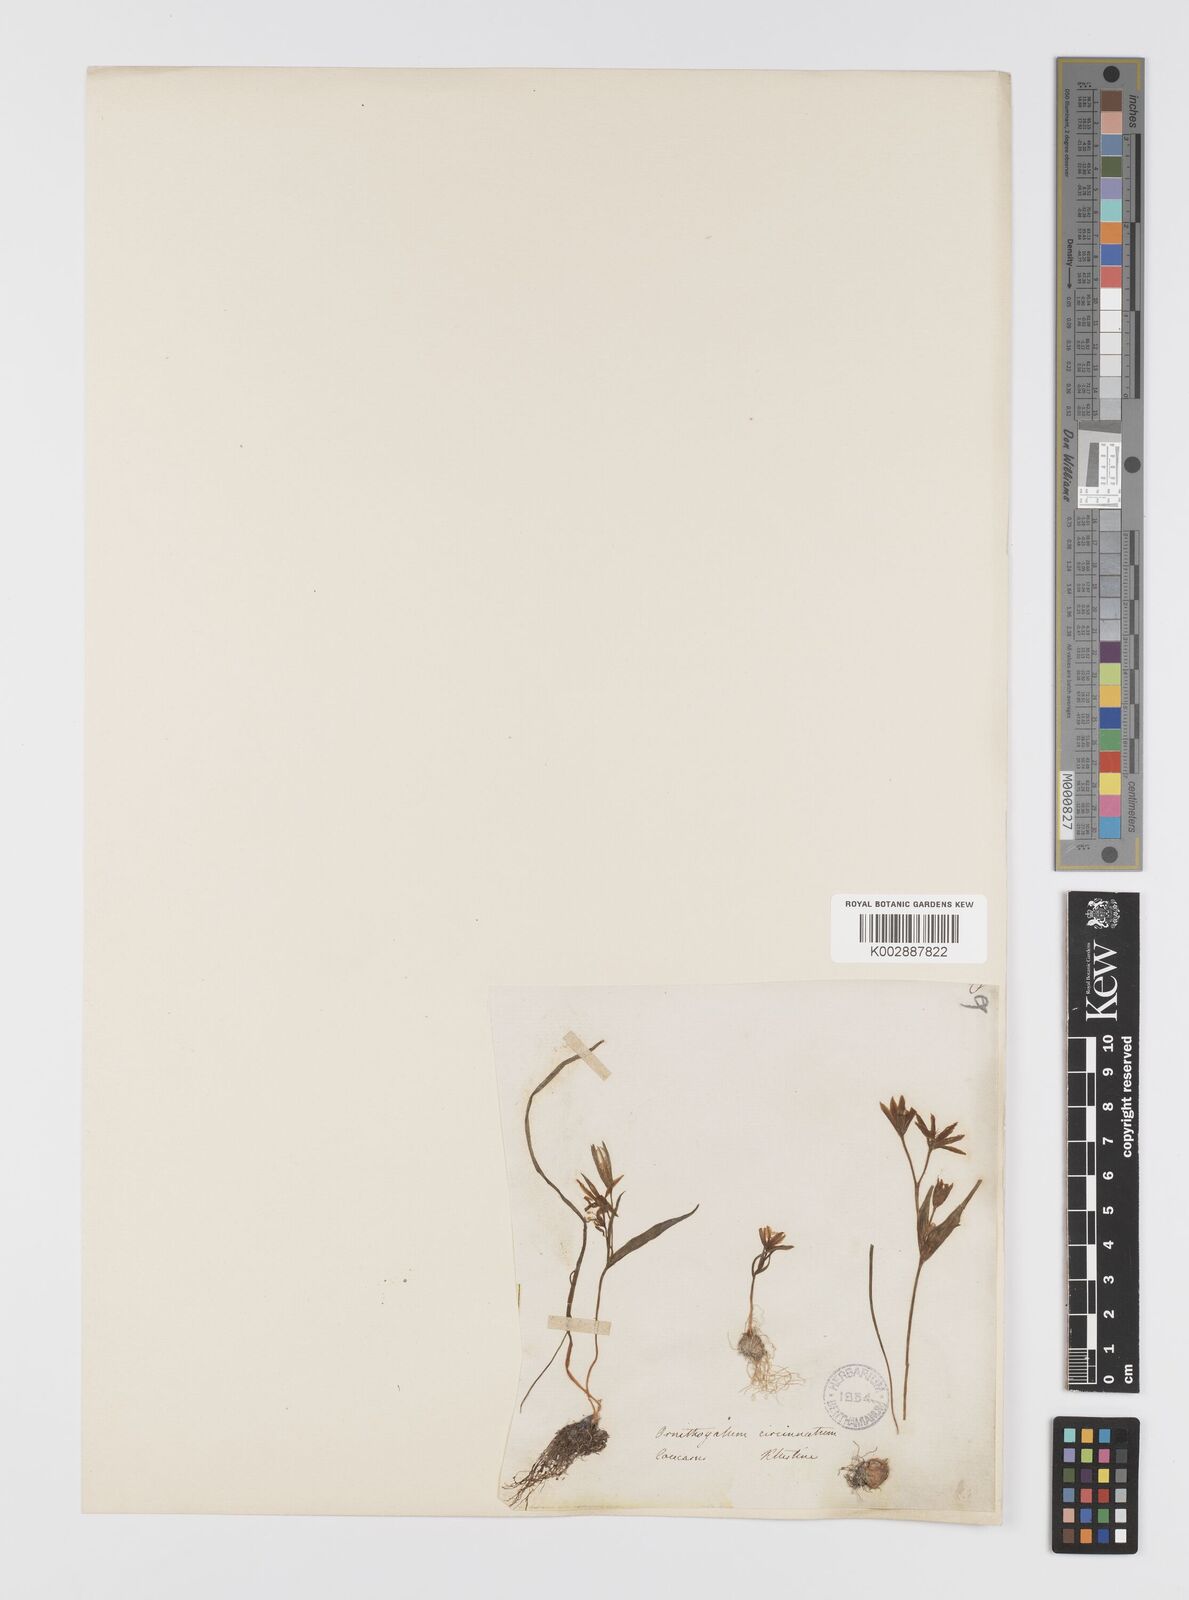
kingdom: Plantae
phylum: Tracheophyta
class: Liliopsida
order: Liliales
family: Liliaceae
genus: Gagea
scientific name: Gagea minima
